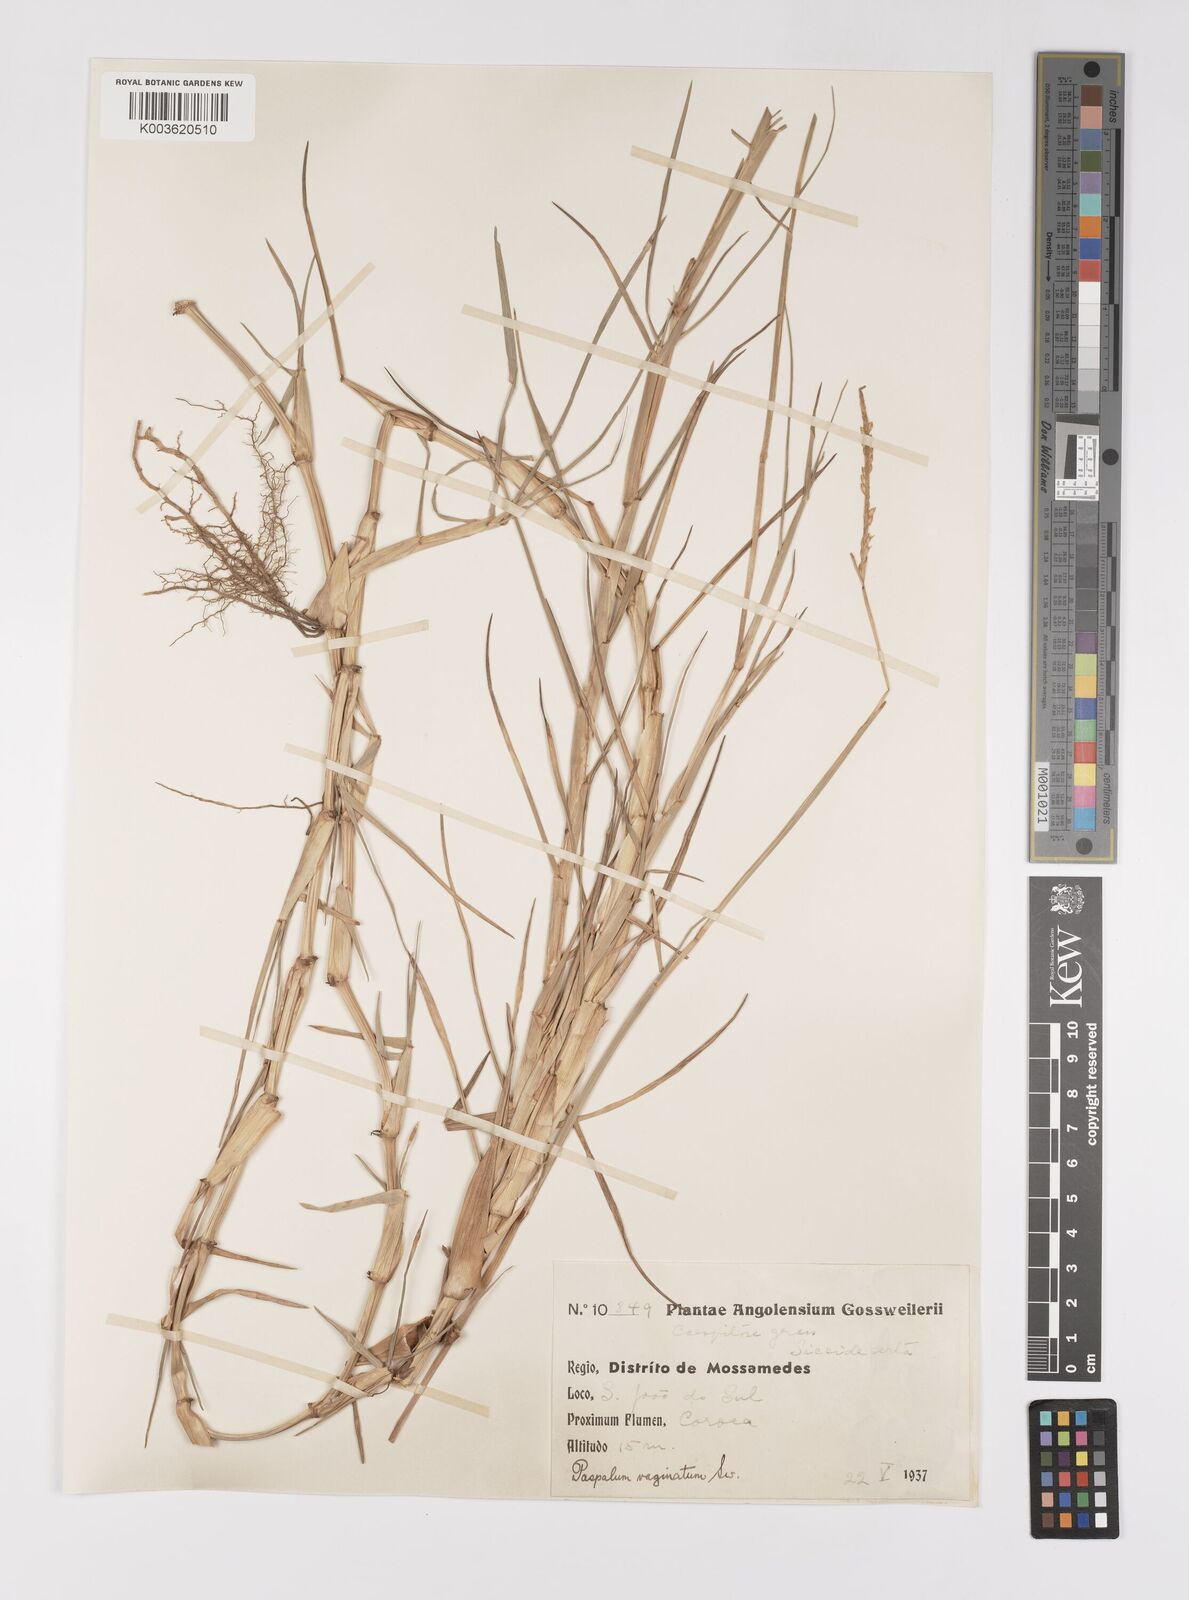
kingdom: Plantae
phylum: Tracheophyta
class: Liliopsida
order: Poales
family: Poaceae
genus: Paspalum
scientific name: Paspalum vaginatum
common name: Seashore paspalum
